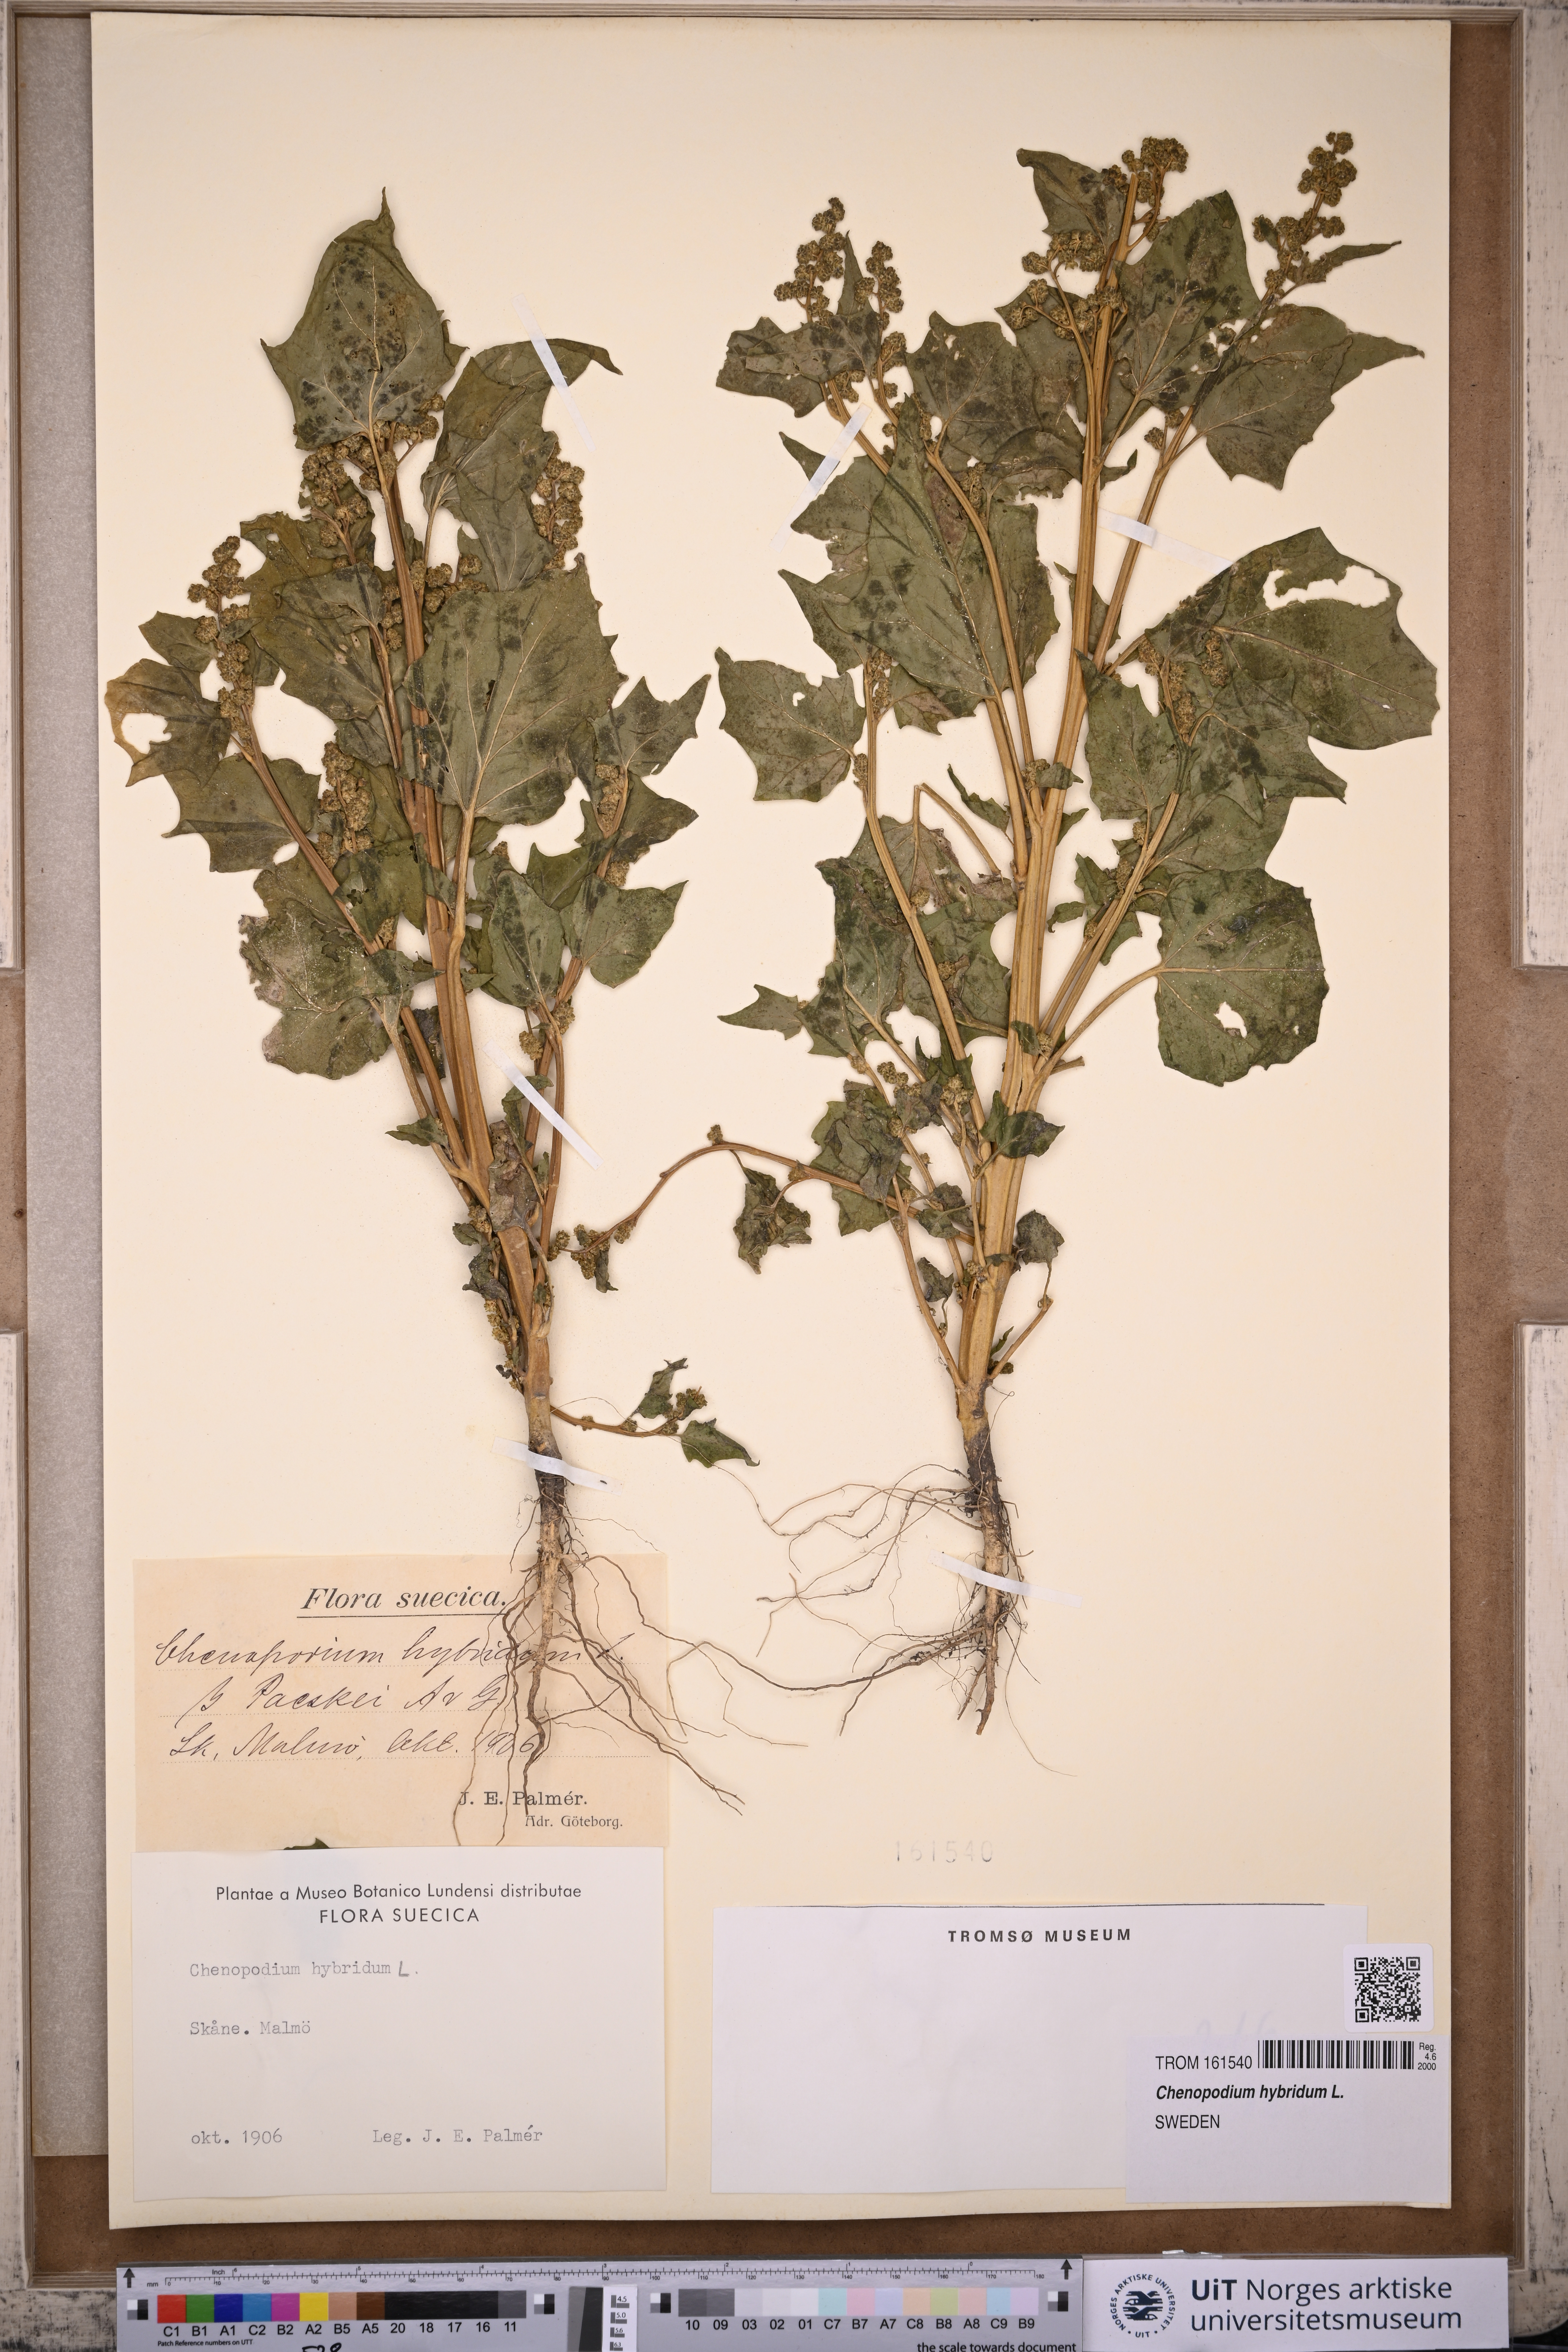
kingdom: Plantae
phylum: Tracheophyta
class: Magnoliopsida
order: Caryophyllales
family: Amaranthaceae
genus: Chenopodiastrum
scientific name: Chenopodiastrum hybridum
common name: Mapleleaf goosefoot
